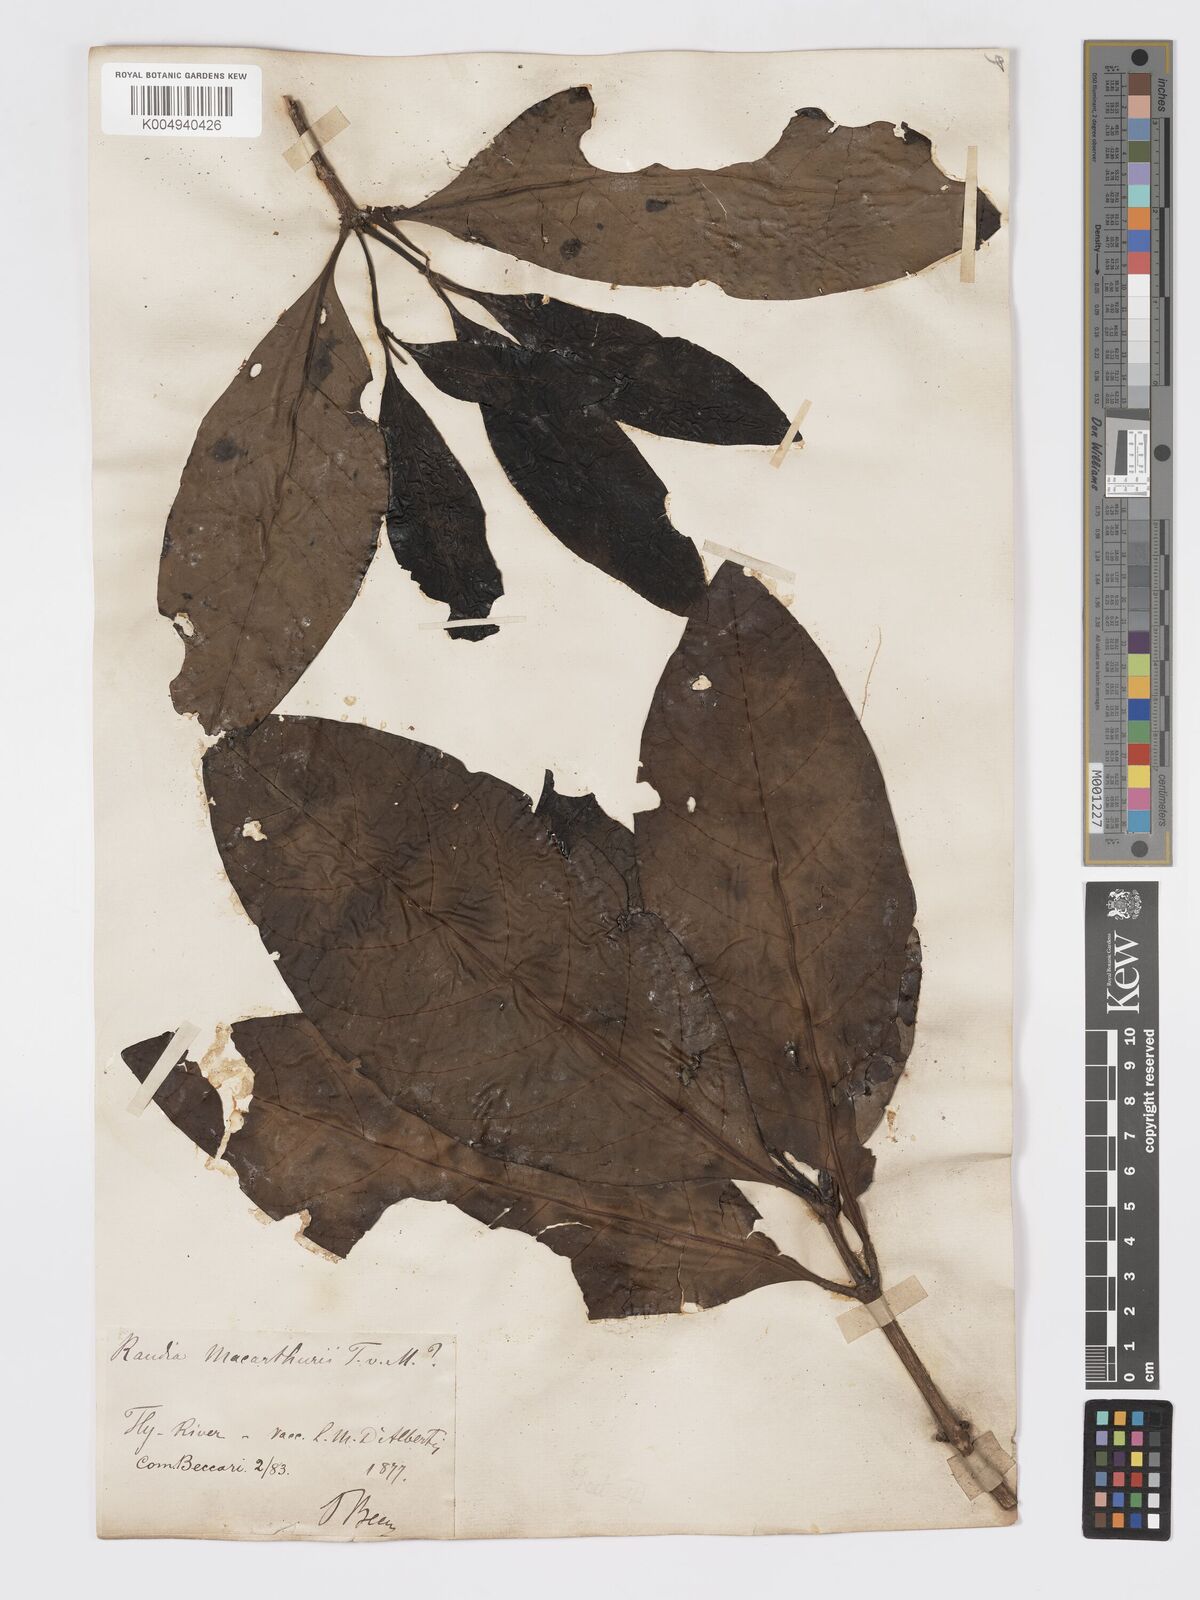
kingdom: Plantae
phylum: Tracheophyta
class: Magnoliopsida
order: Gentianales
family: Rubiaceae
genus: Atractocarpus
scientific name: Atractocarpus macarthurii
